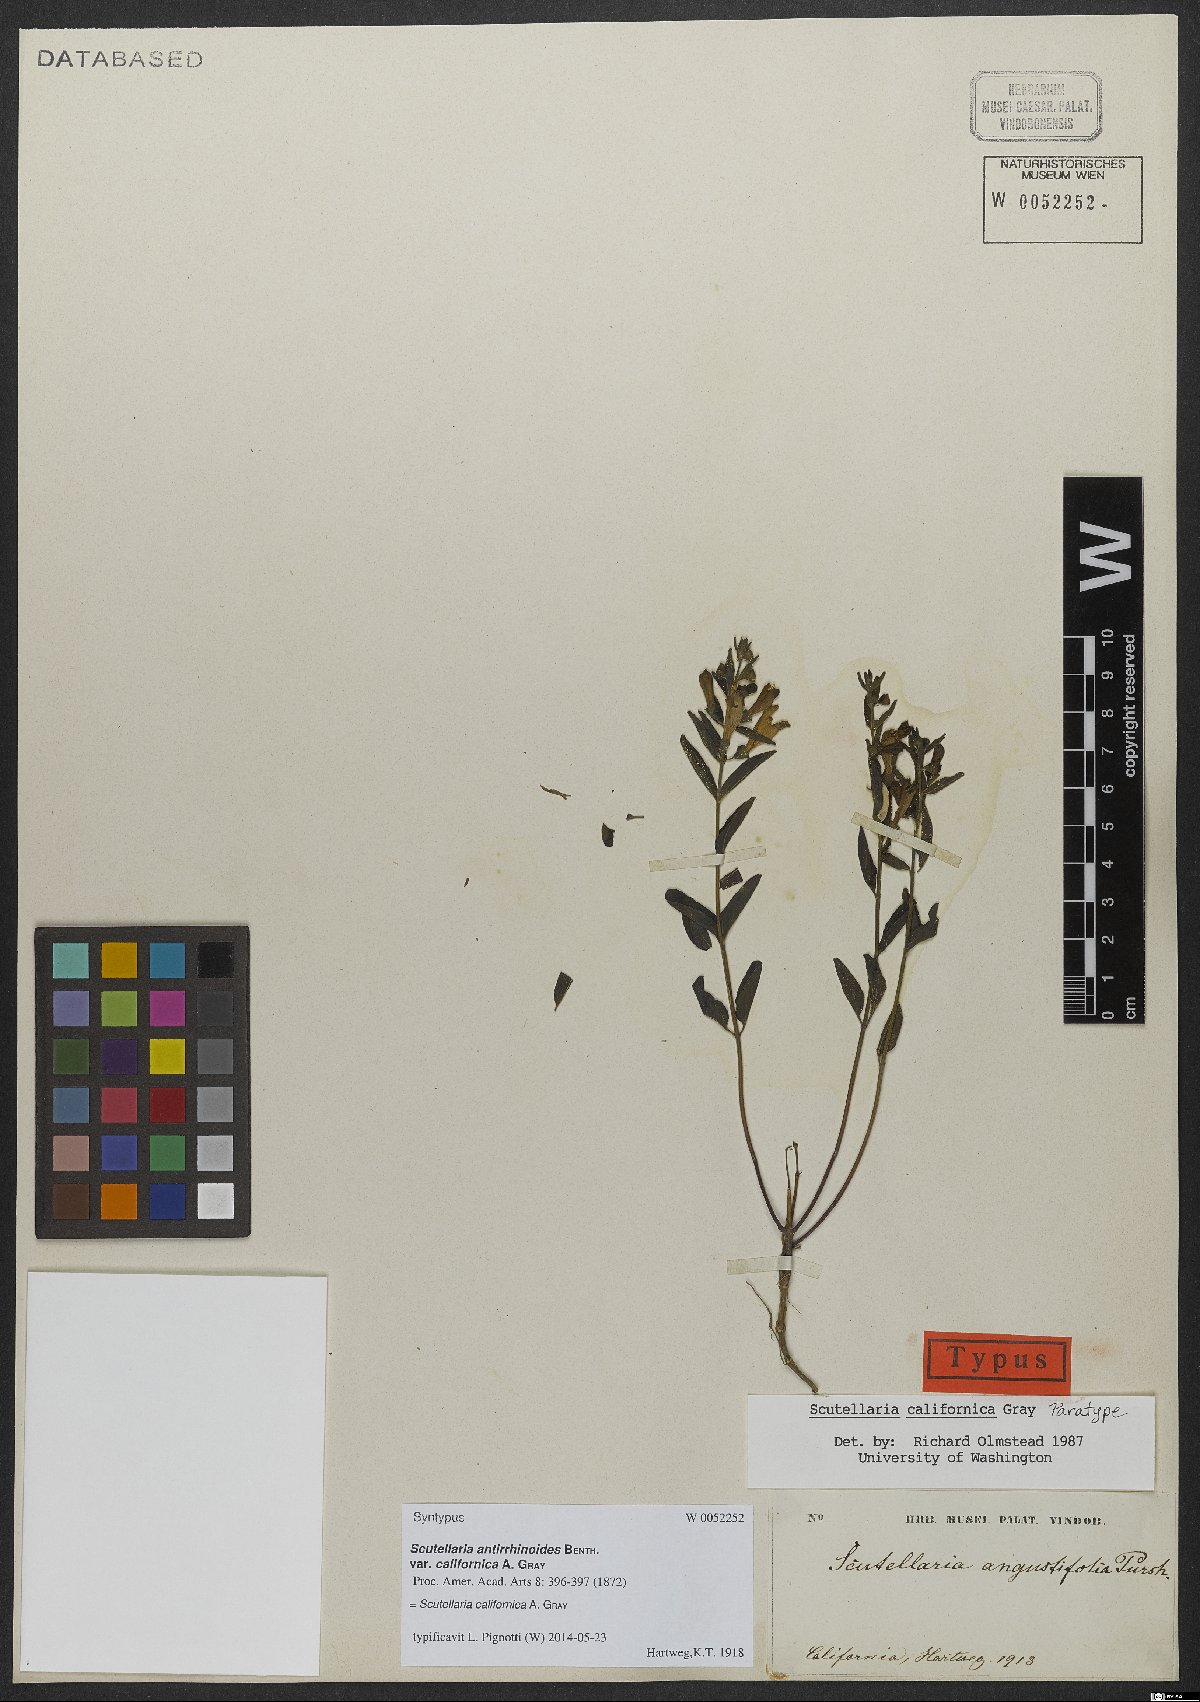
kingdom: Plantae
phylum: Tracheophyta
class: Magnoliopsida
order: Lamiales
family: Lamiaceae
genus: Scutellaria
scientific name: Scutellaria californica
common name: California scullcap
